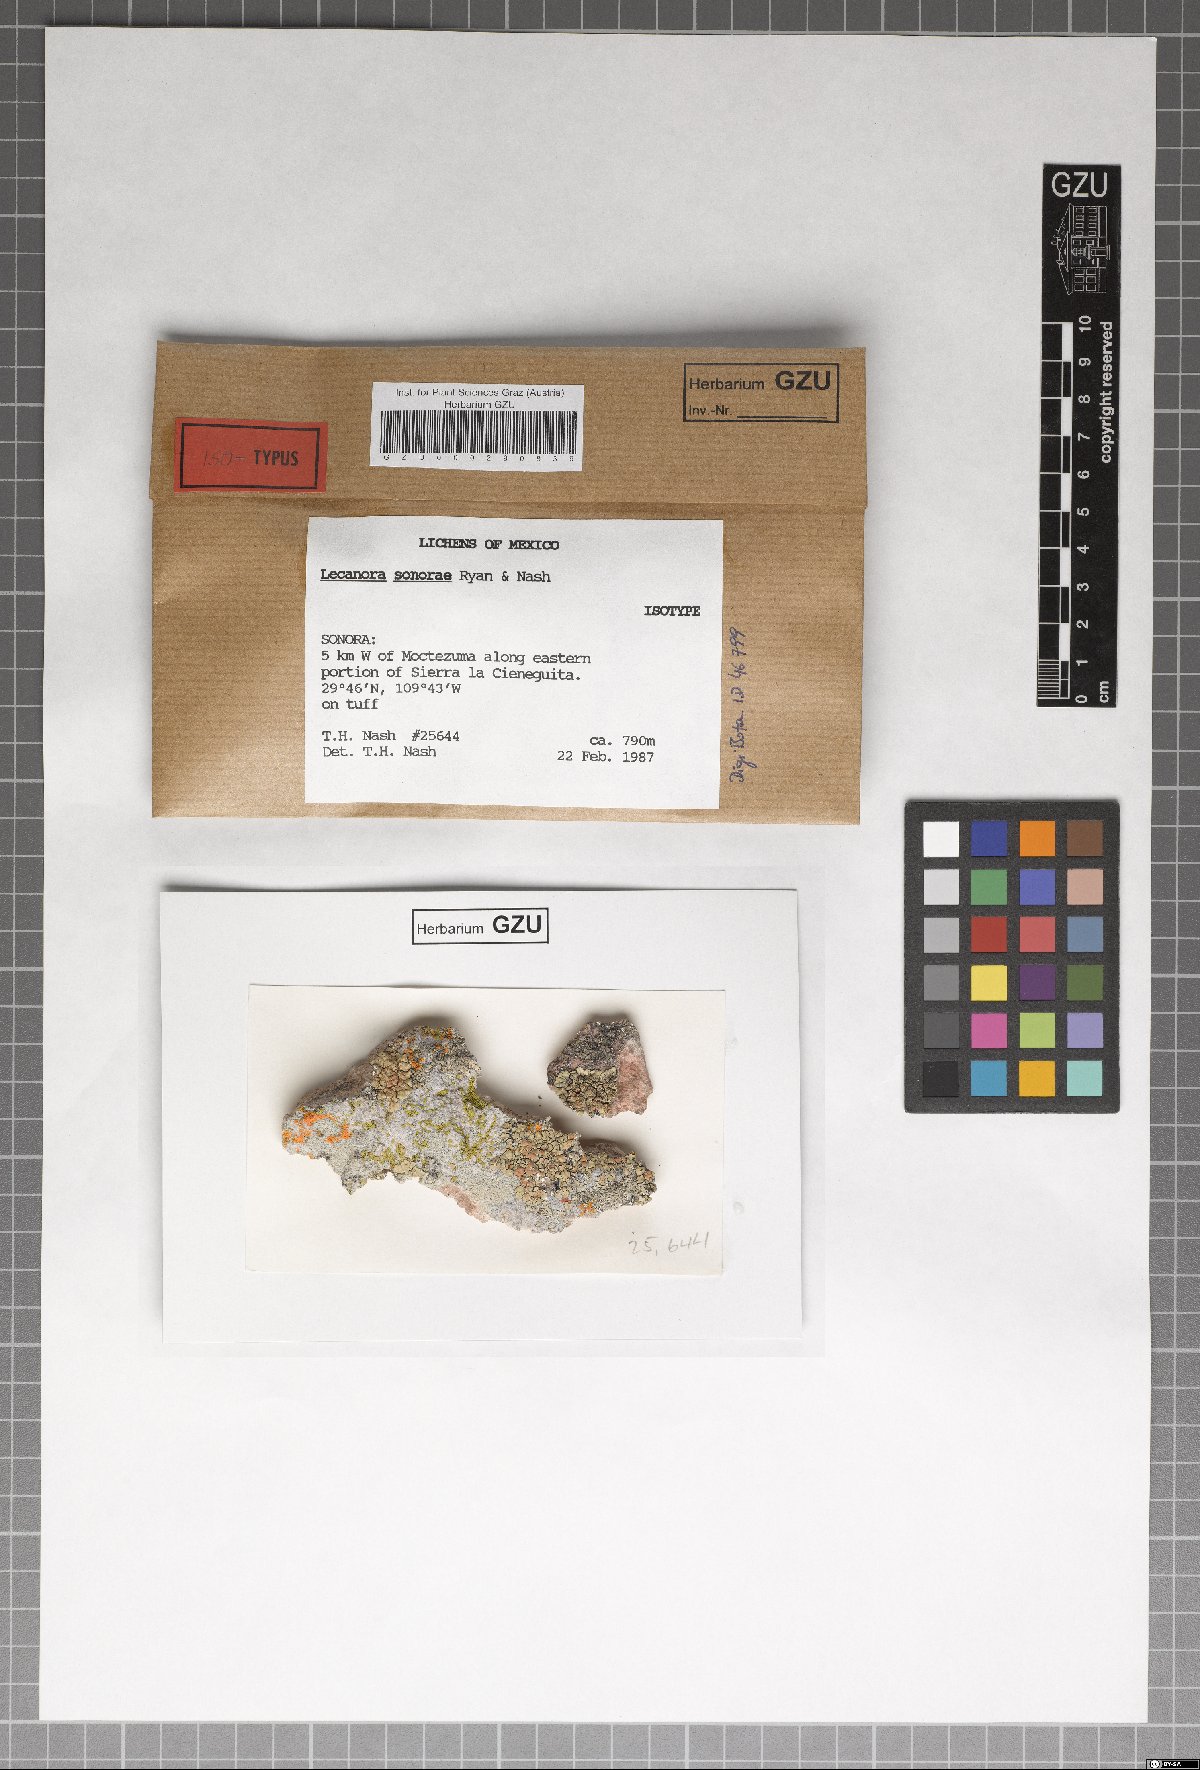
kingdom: Fungi
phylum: Ascomycota
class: Lecanoromycetes
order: Lecanorales
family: Lecanoraceae
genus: Lecanora
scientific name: Lecanora sonorae
